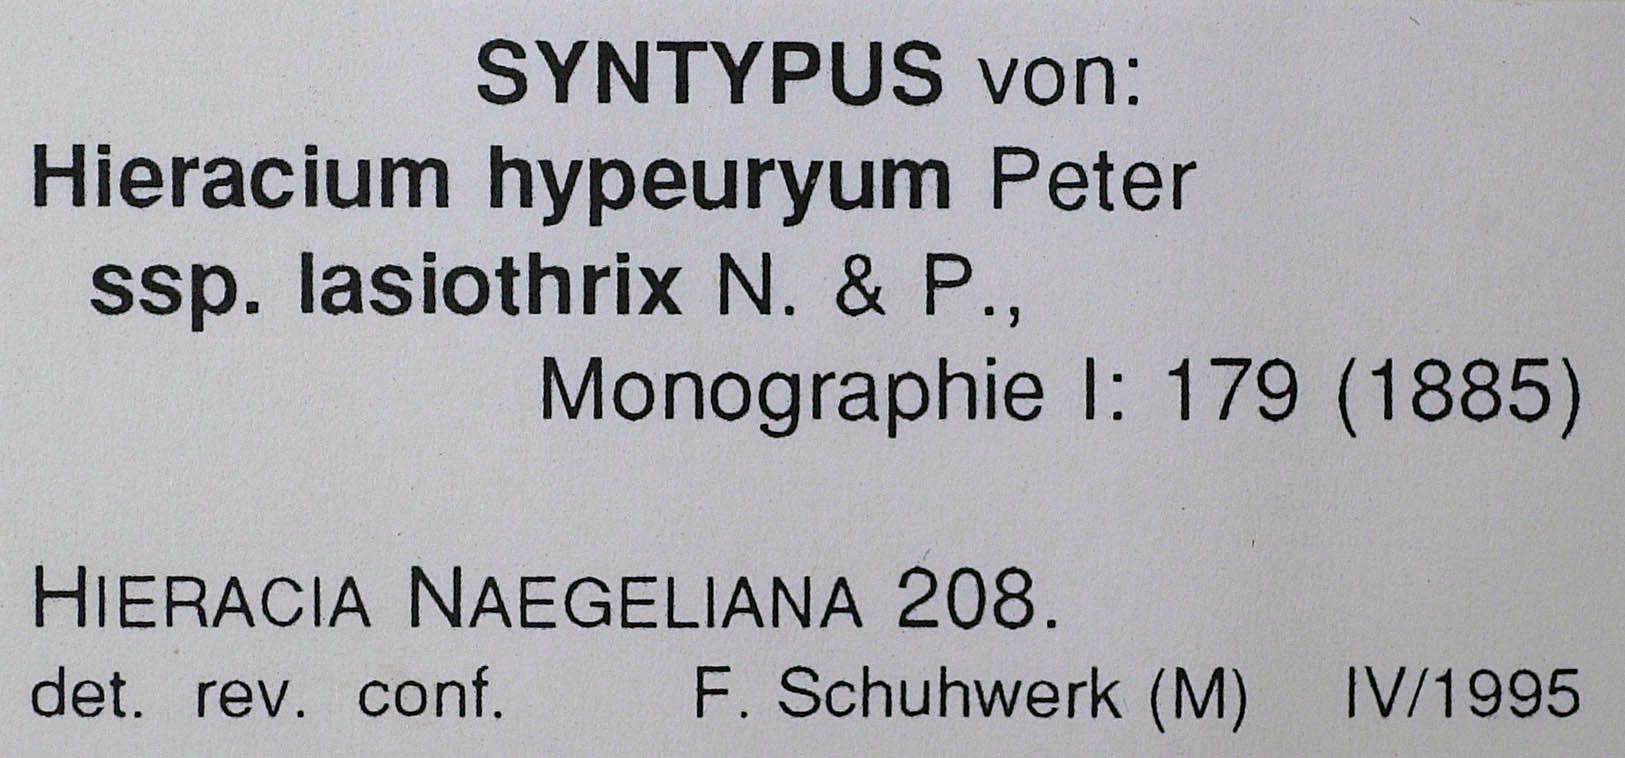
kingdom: Plantae
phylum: Tracheophyta
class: Magnoliopsida
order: Asterales
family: Asteraceae
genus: Pilosella
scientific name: Pilosella hypeurya
